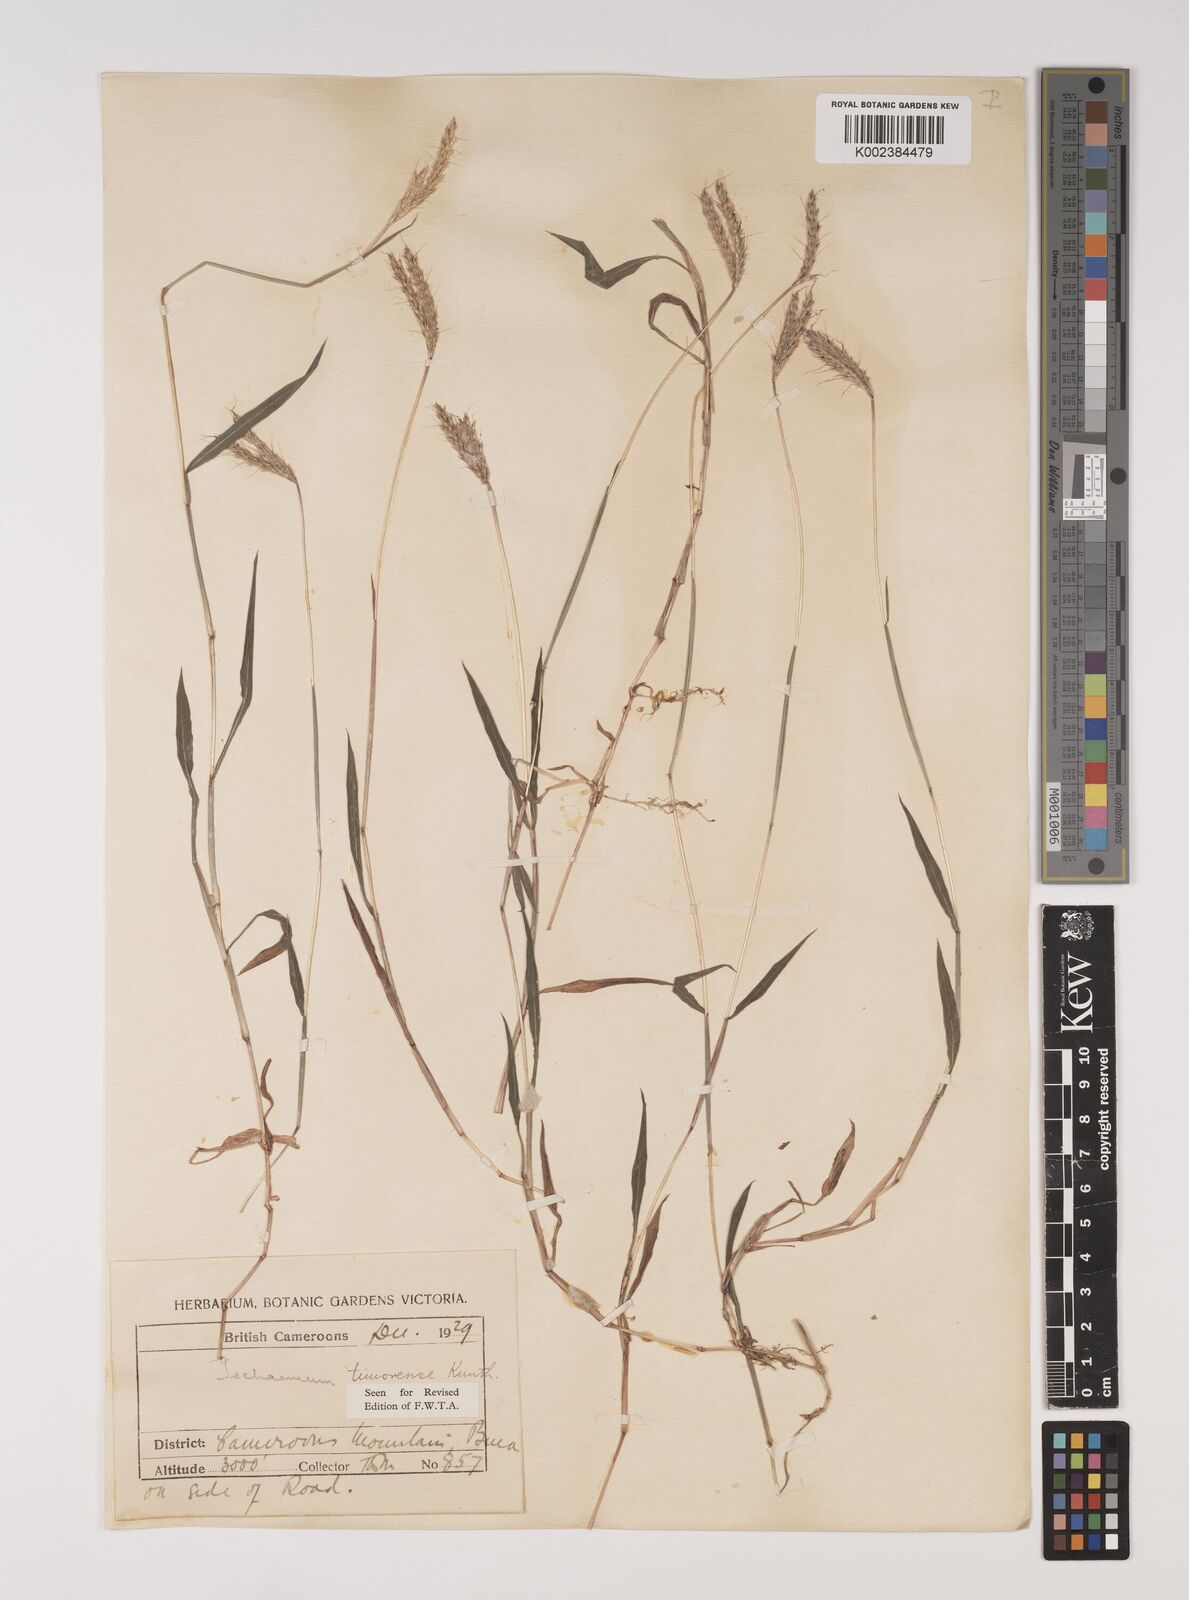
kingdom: Plantae
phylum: Tracheophyta
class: Liliopsida
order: Poales
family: Poaceae
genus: Ischaemum
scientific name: Ischaemum timorense
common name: Stalkleaf murainagrass
